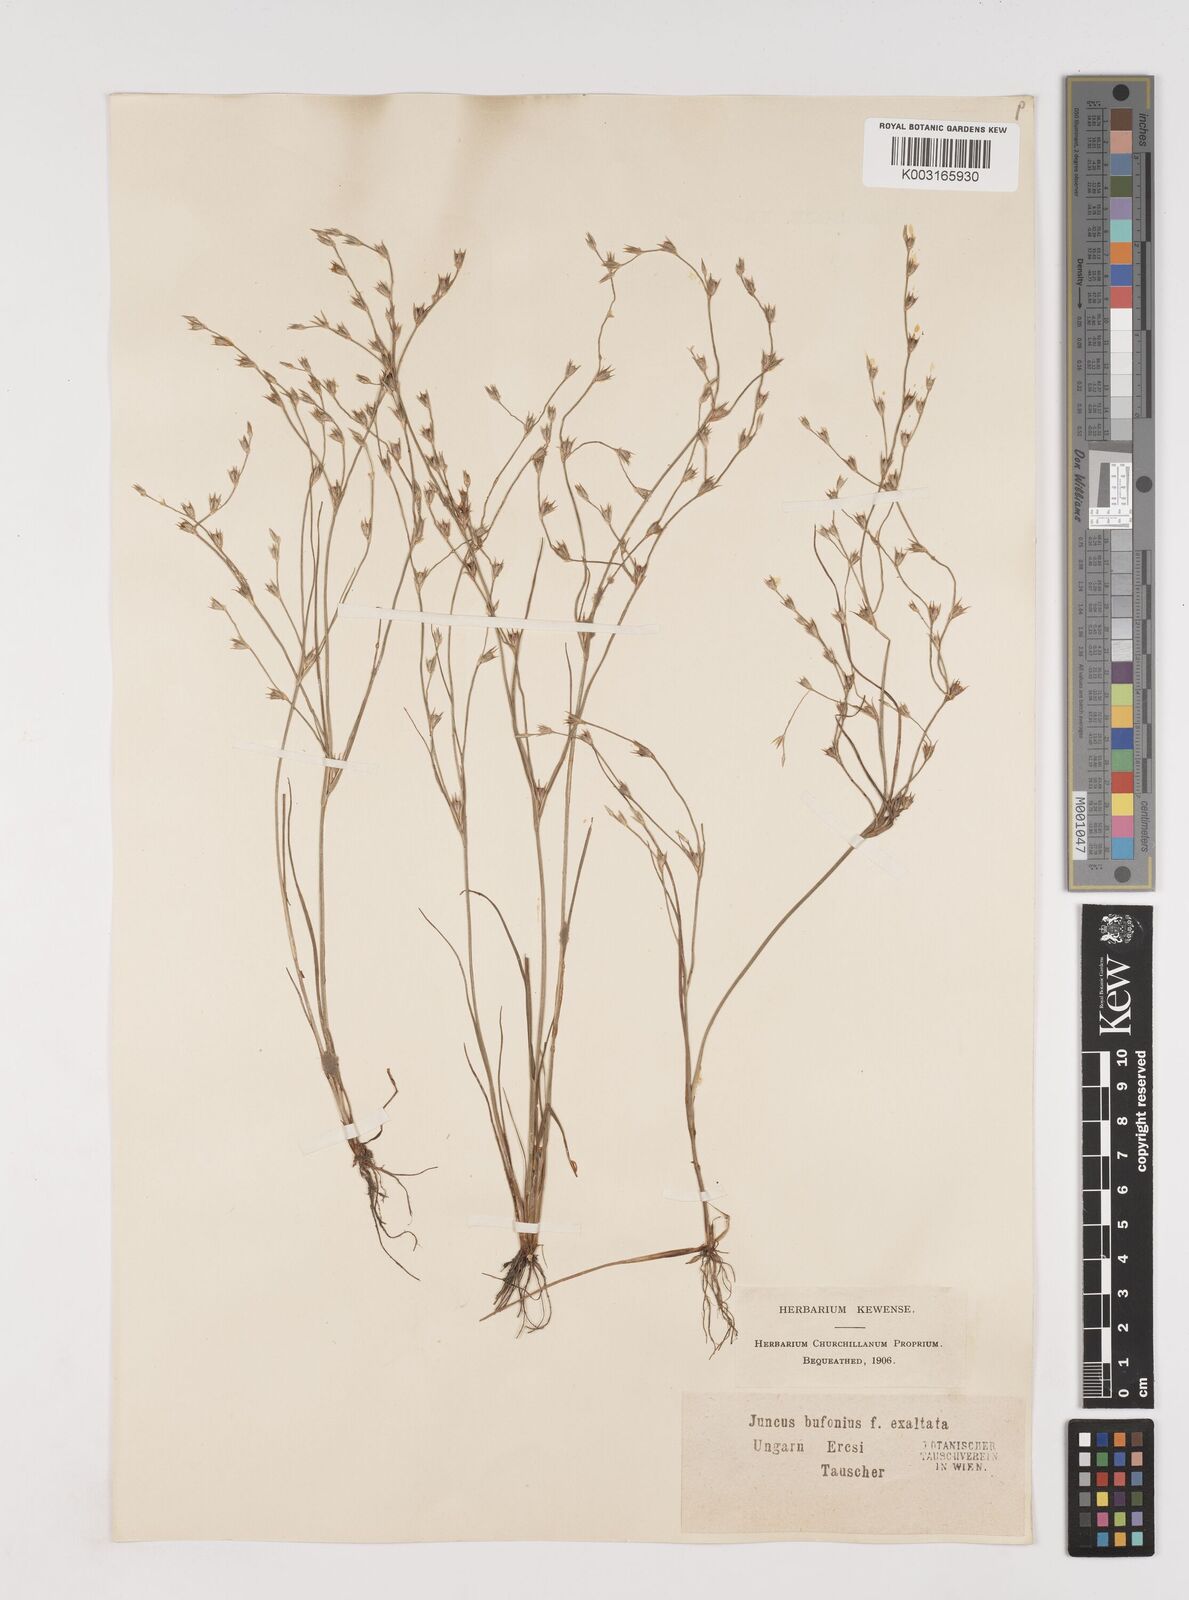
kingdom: Plantae
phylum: Tracheophyta
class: Liliopsida
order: Poales
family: Juncaceae
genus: Juncus
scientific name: Juncus bufonius
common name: Toad rush
